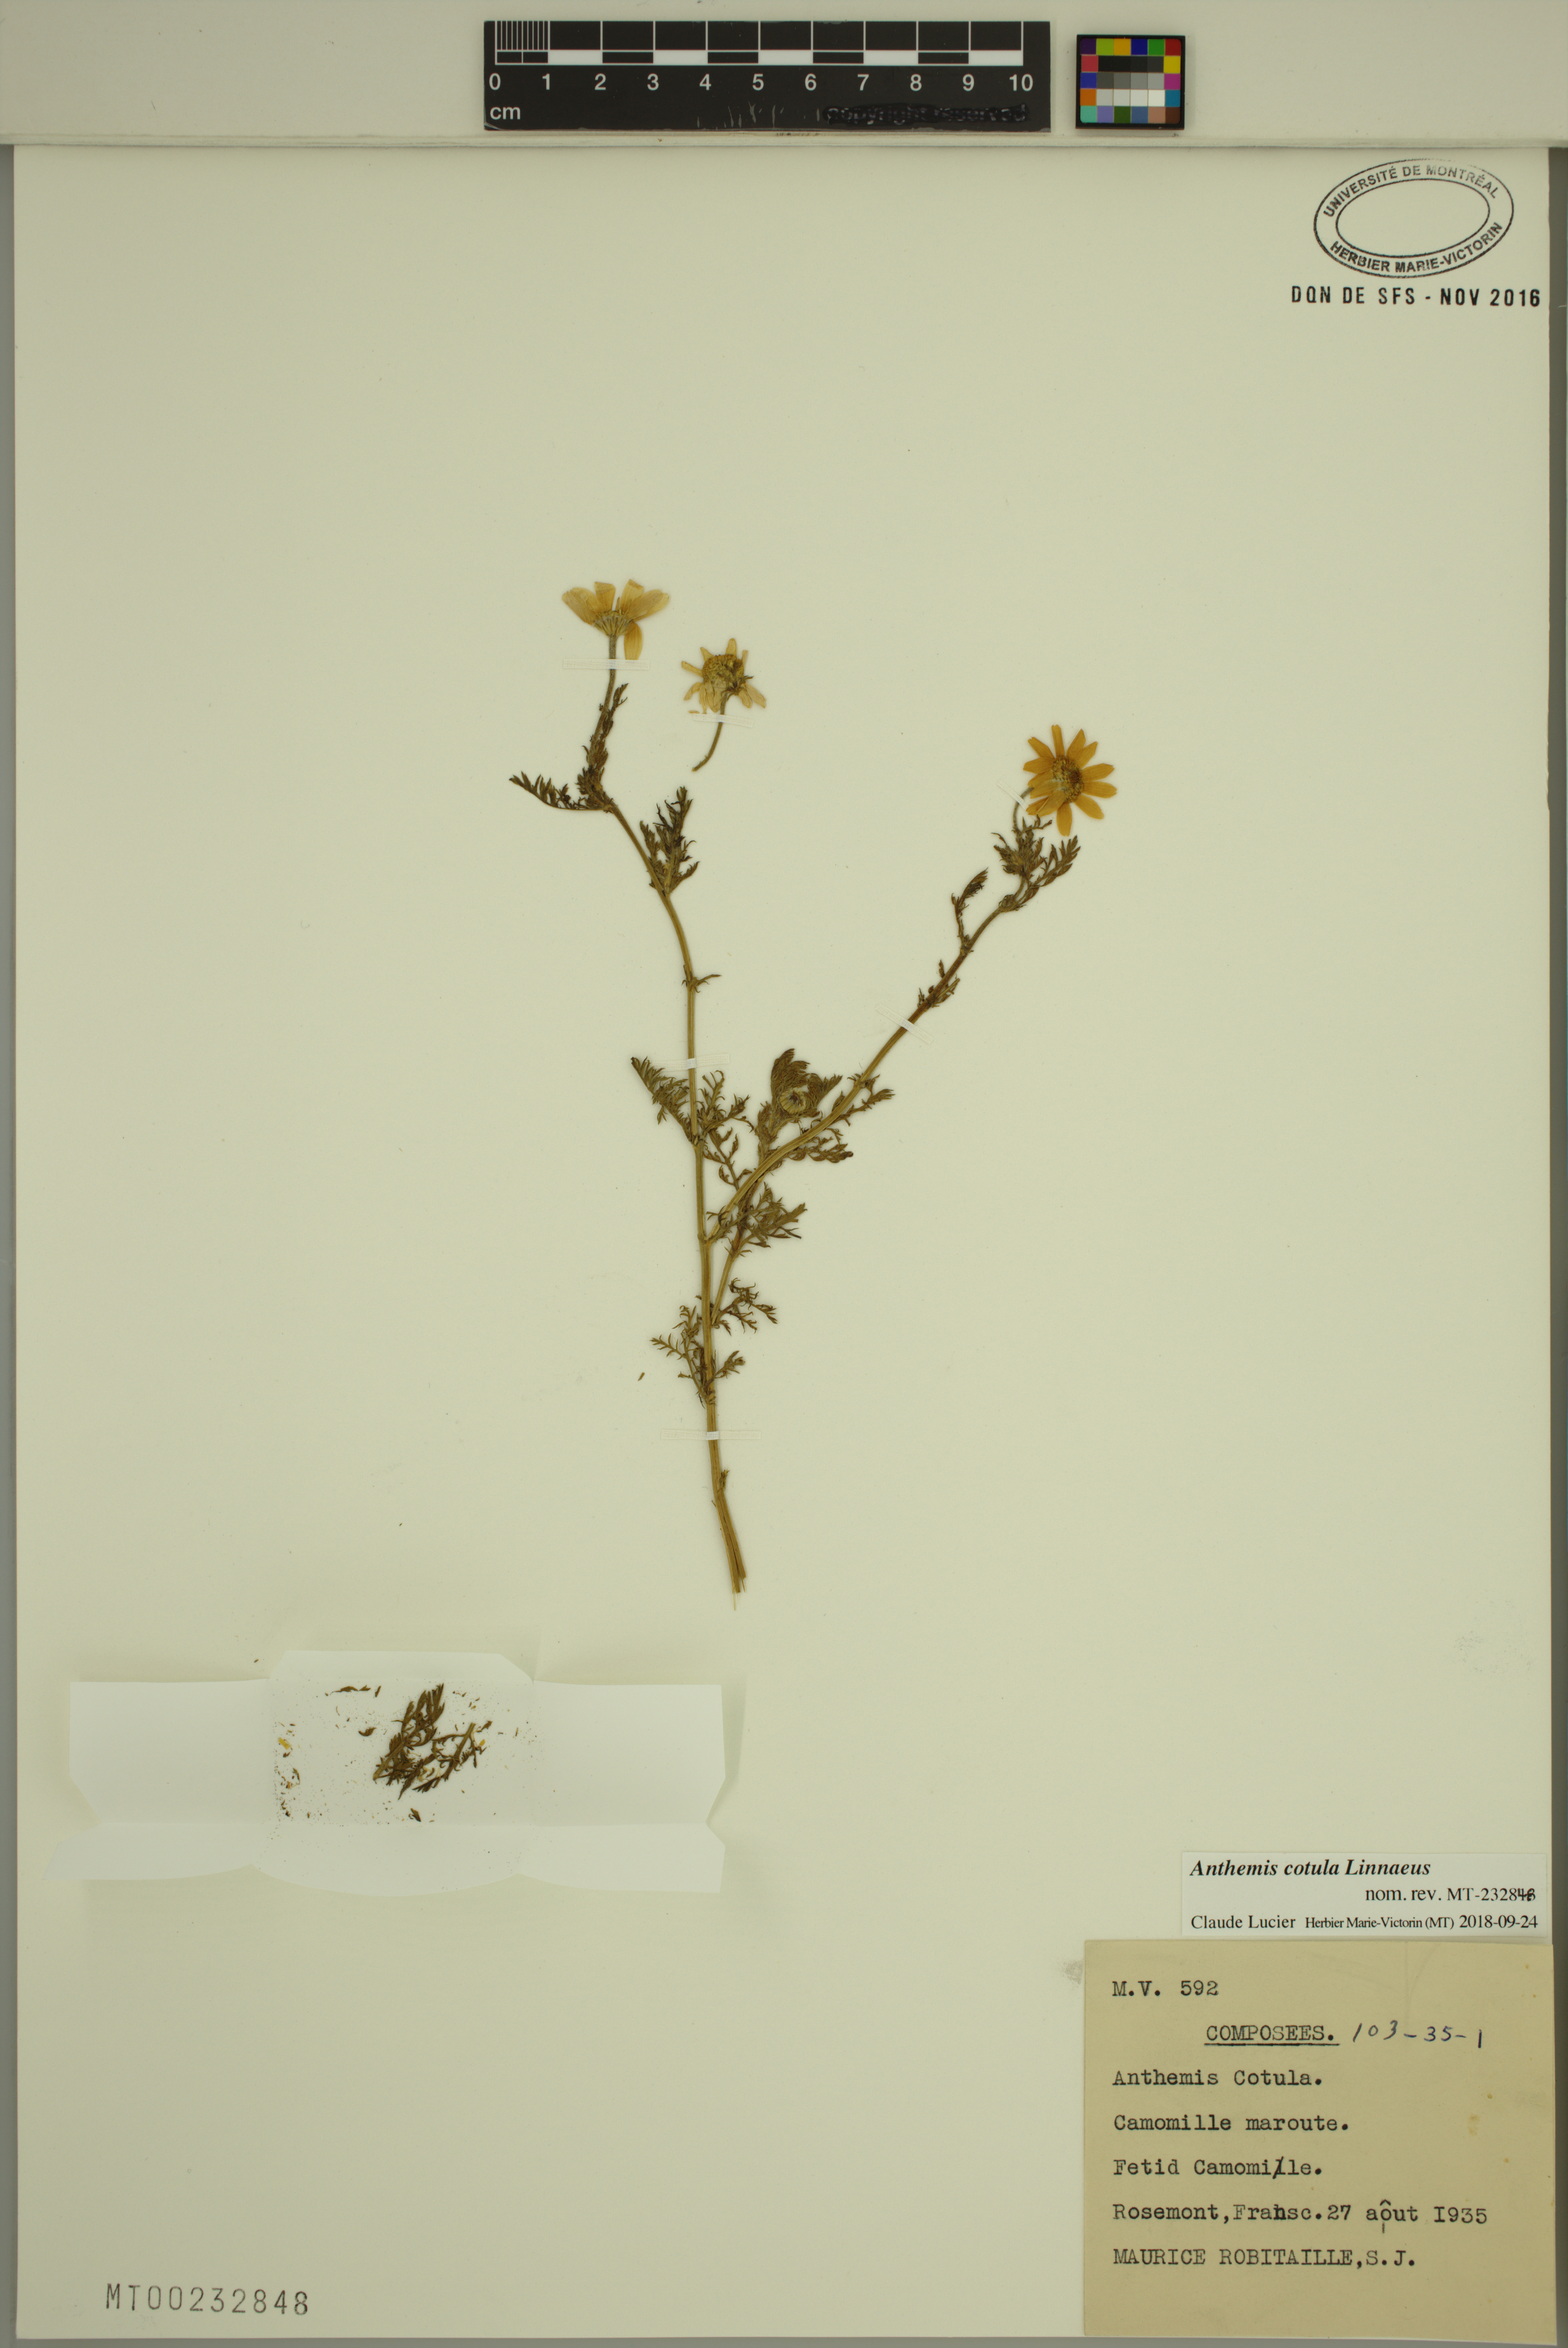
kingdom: Plantae
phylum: Tracheophyta
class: Magnoliopsida
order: Asterales
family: Asteraceae
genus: Anthemis
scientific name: Anthemis cotula
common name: Stinking chamomile
